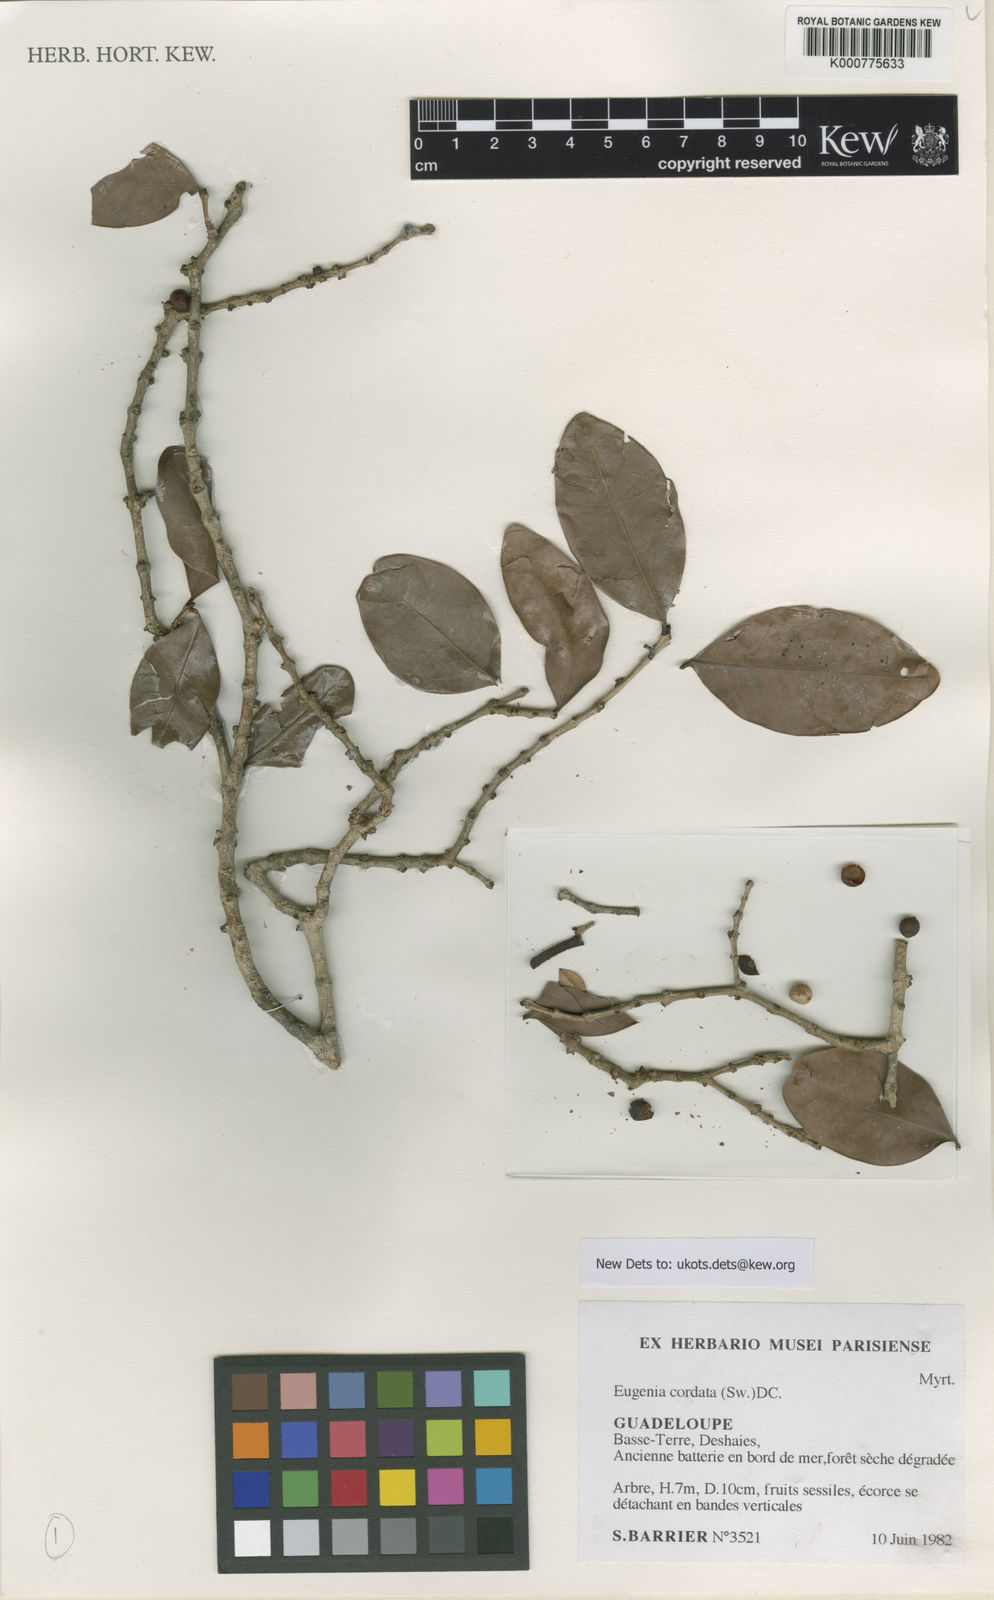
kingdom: Plantae
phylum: Tracheophyta
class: Magnoliopsida
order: Myrtales
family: Myrtaceae
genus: Eugenia
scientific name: Eugenia cordata
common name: Lathberry
